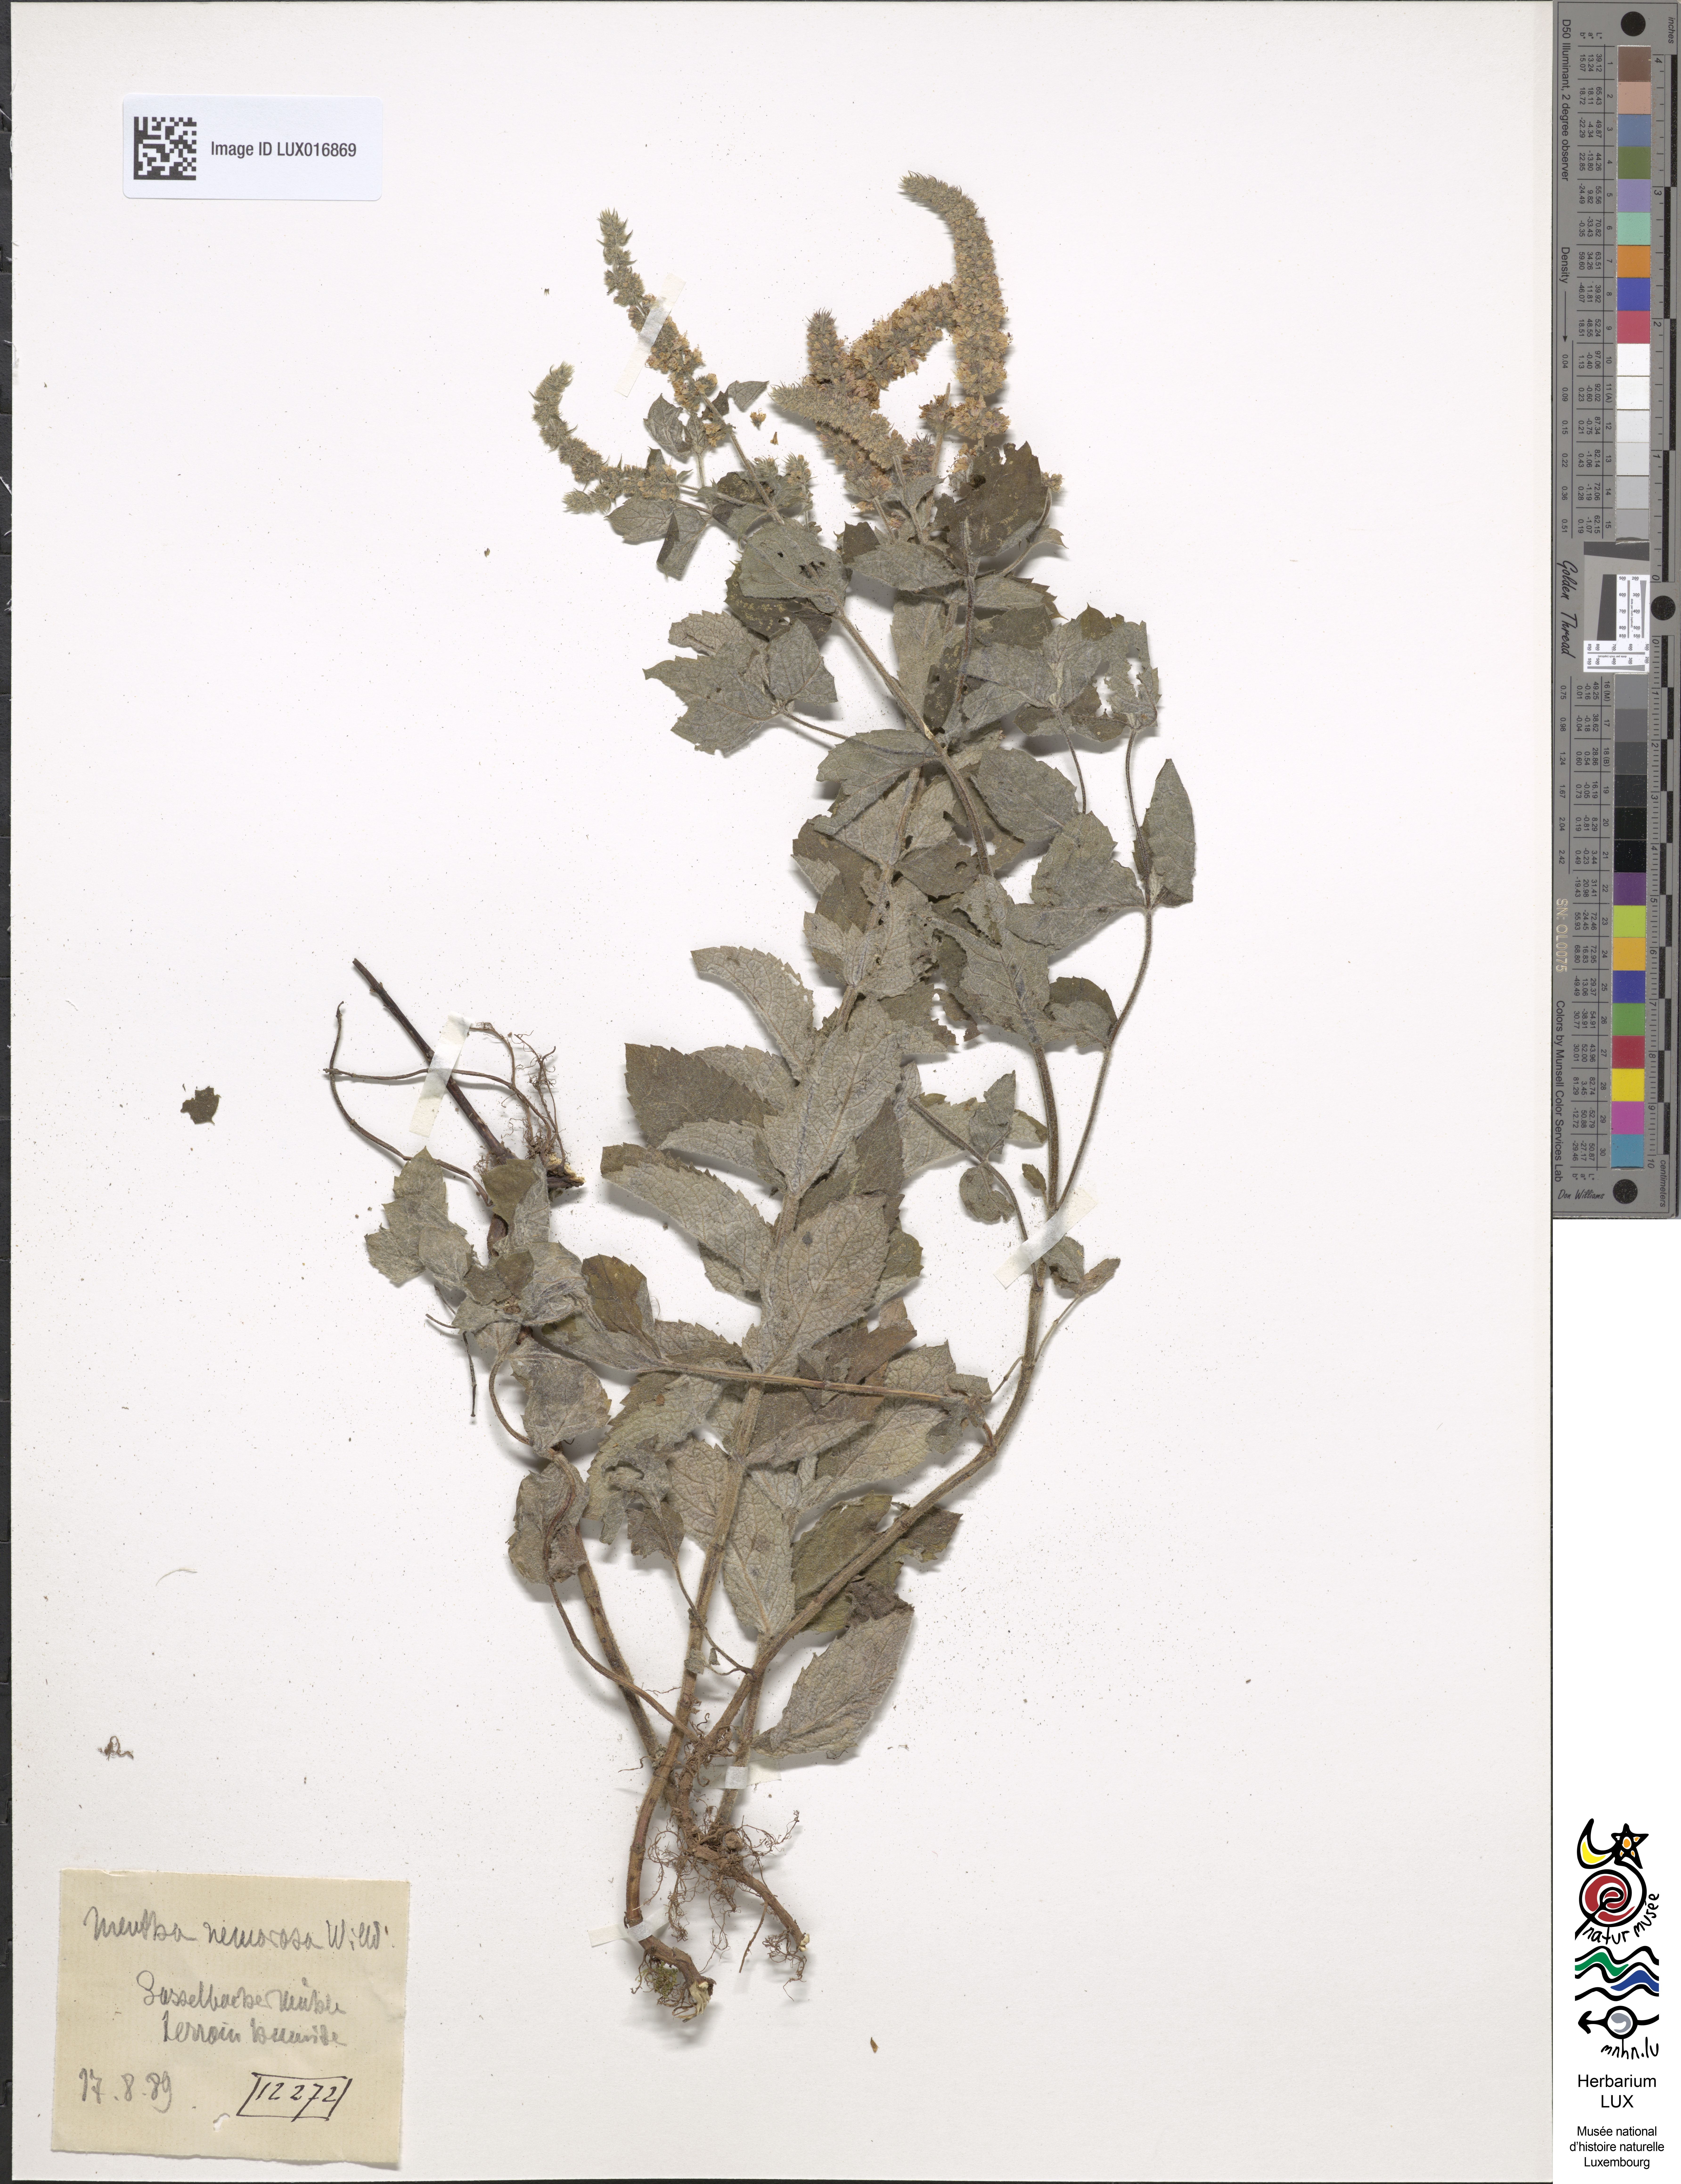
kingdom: Plantae
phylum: Tracheophyta
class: Magnoliopsida
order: Lamiales
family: Lamiaceae
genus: Mentha
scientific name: Mentha rotundifolia
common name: Bigleaf mint
